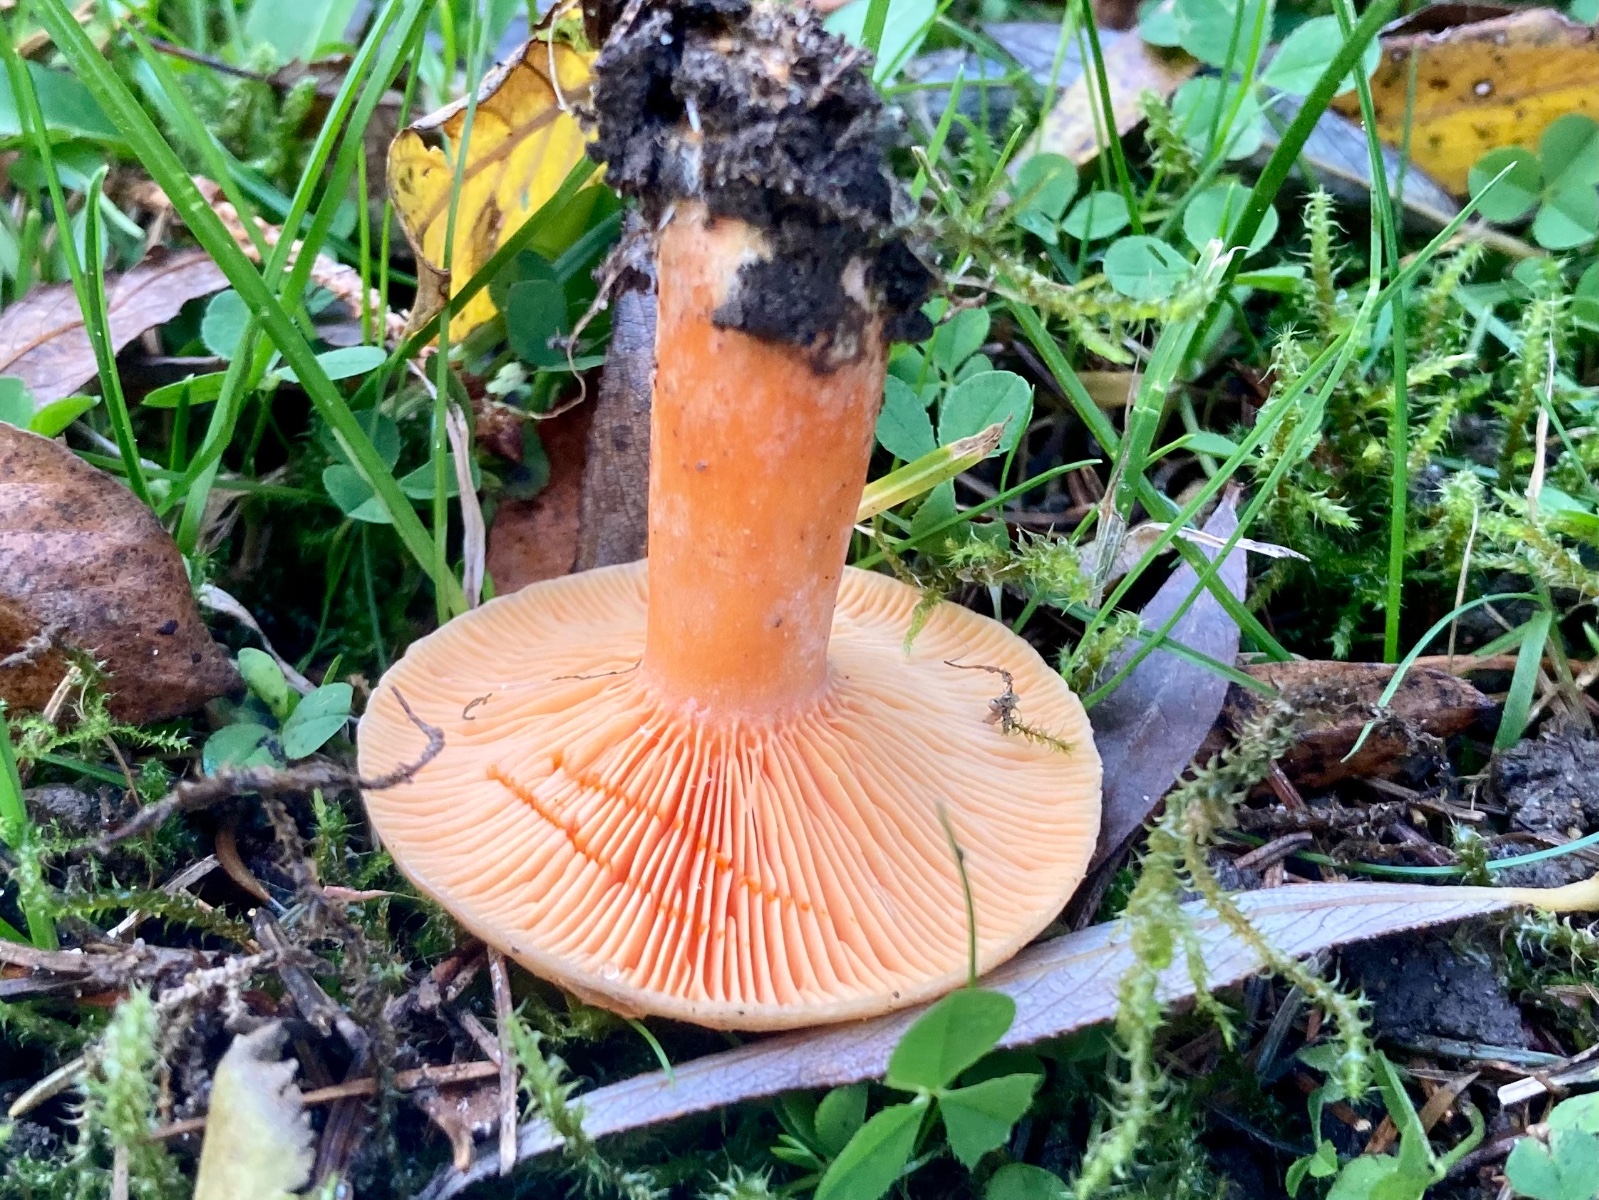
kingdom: Fungi
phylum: Basidiomycota
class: Agaricomycetes
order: Russulales
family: Russulaceae
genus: Lactarius
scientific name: Lactarius deterrimus
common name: gran-mælkehat
